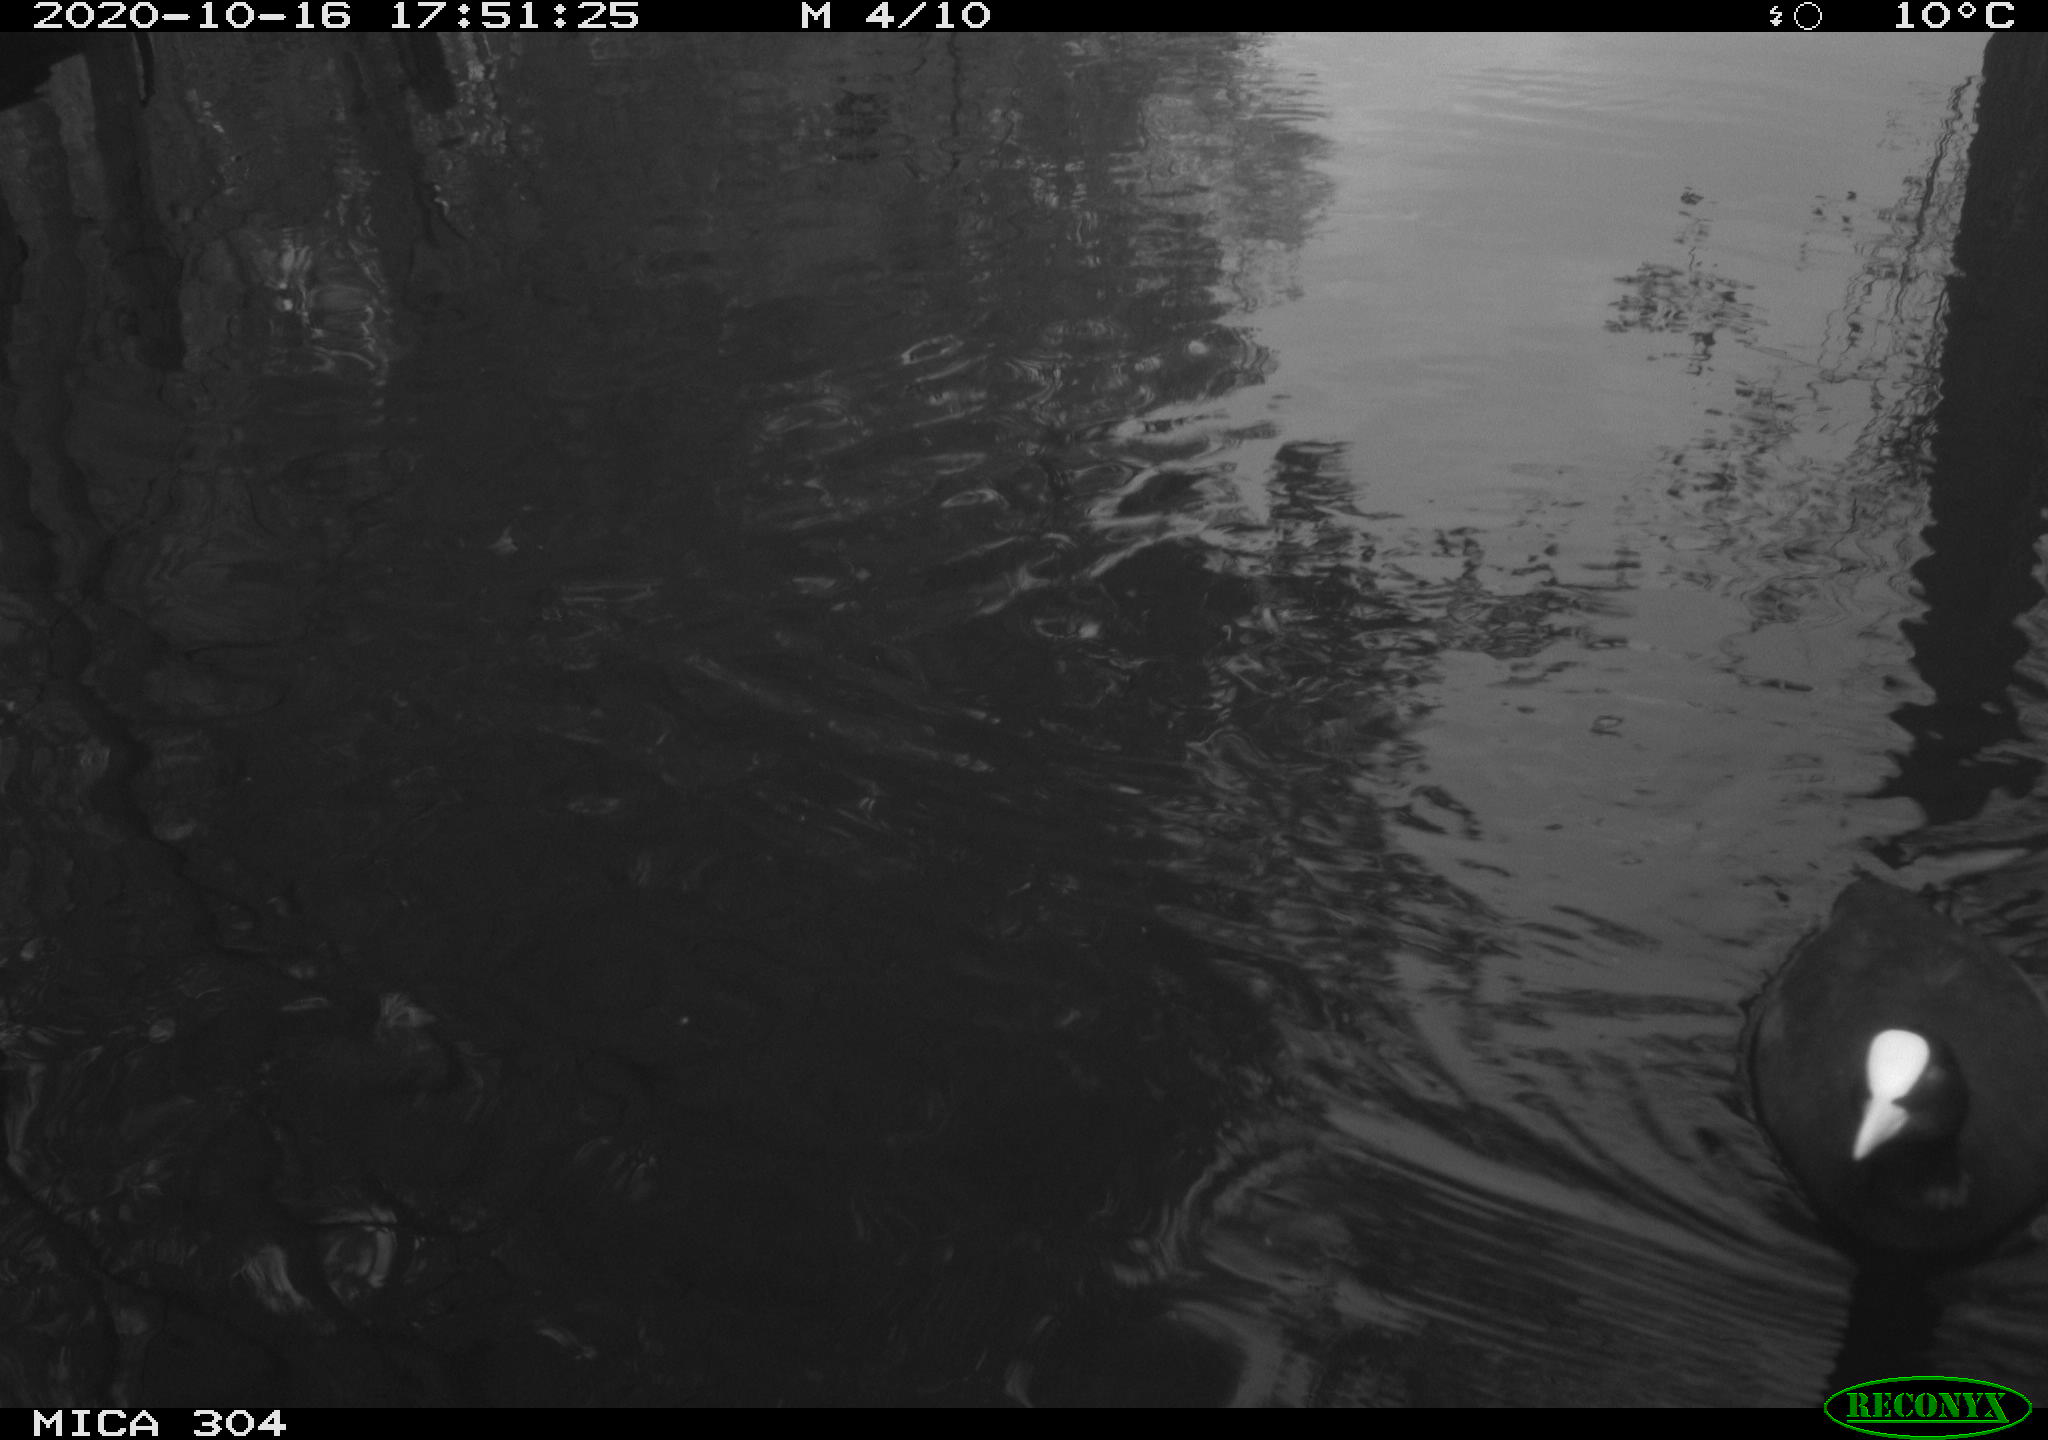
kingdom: Animalia
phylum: Chordata
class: Aves
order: Gruiformes
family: Rallidae
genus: Fulica
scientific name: Fulica atra
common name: Eurasian coot
